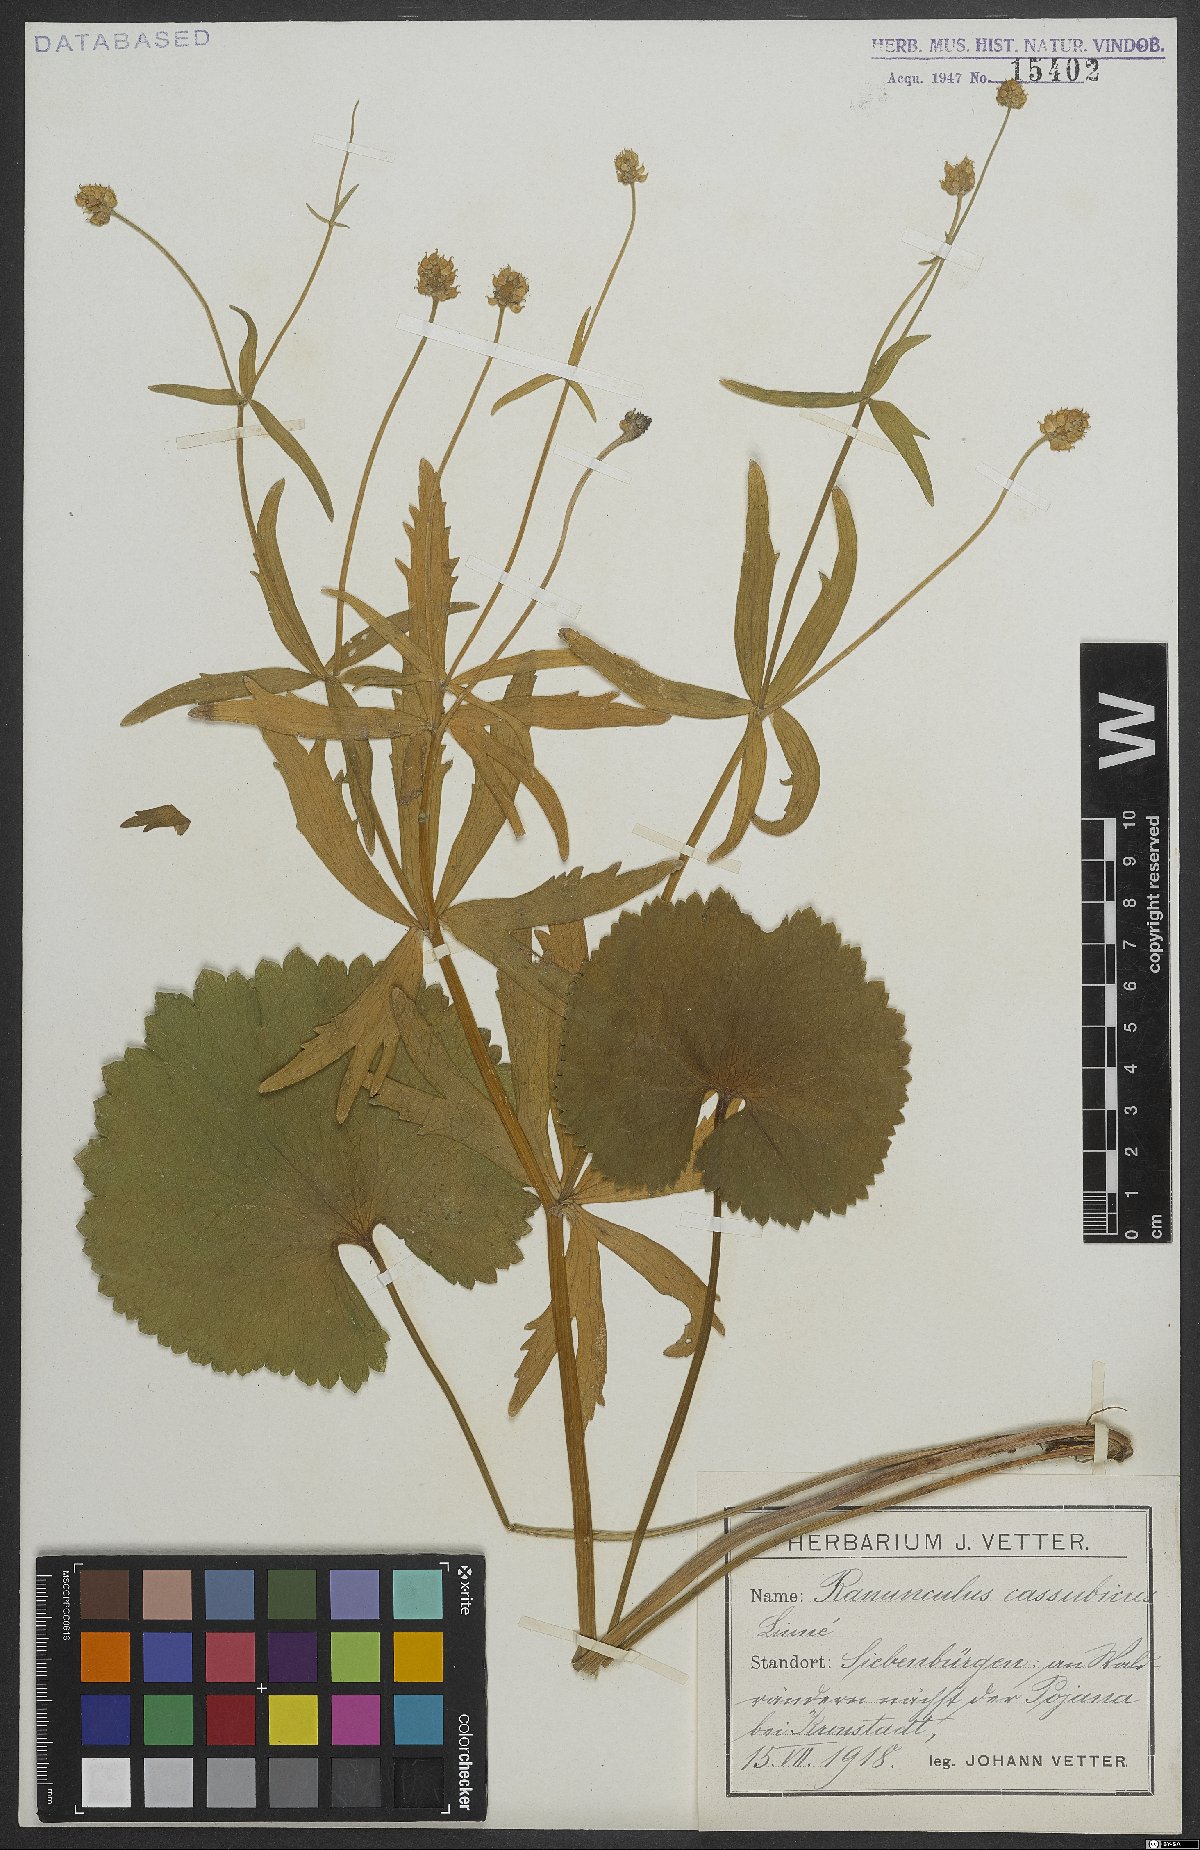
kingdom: Plantae
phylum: Tracheophyta
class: Magnoliopsida
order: Ranunculales
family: Ranunculaceae
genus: Ranunculus
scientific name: Ranunculus cassubicus
